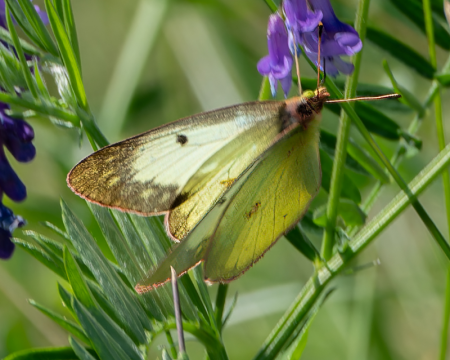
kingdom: Animalia
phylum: Arthropoda
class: Insecta
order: Lepidoptera
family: Pieridae
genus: Colias
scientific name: Colias philodice
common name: Clouded Sulphur
